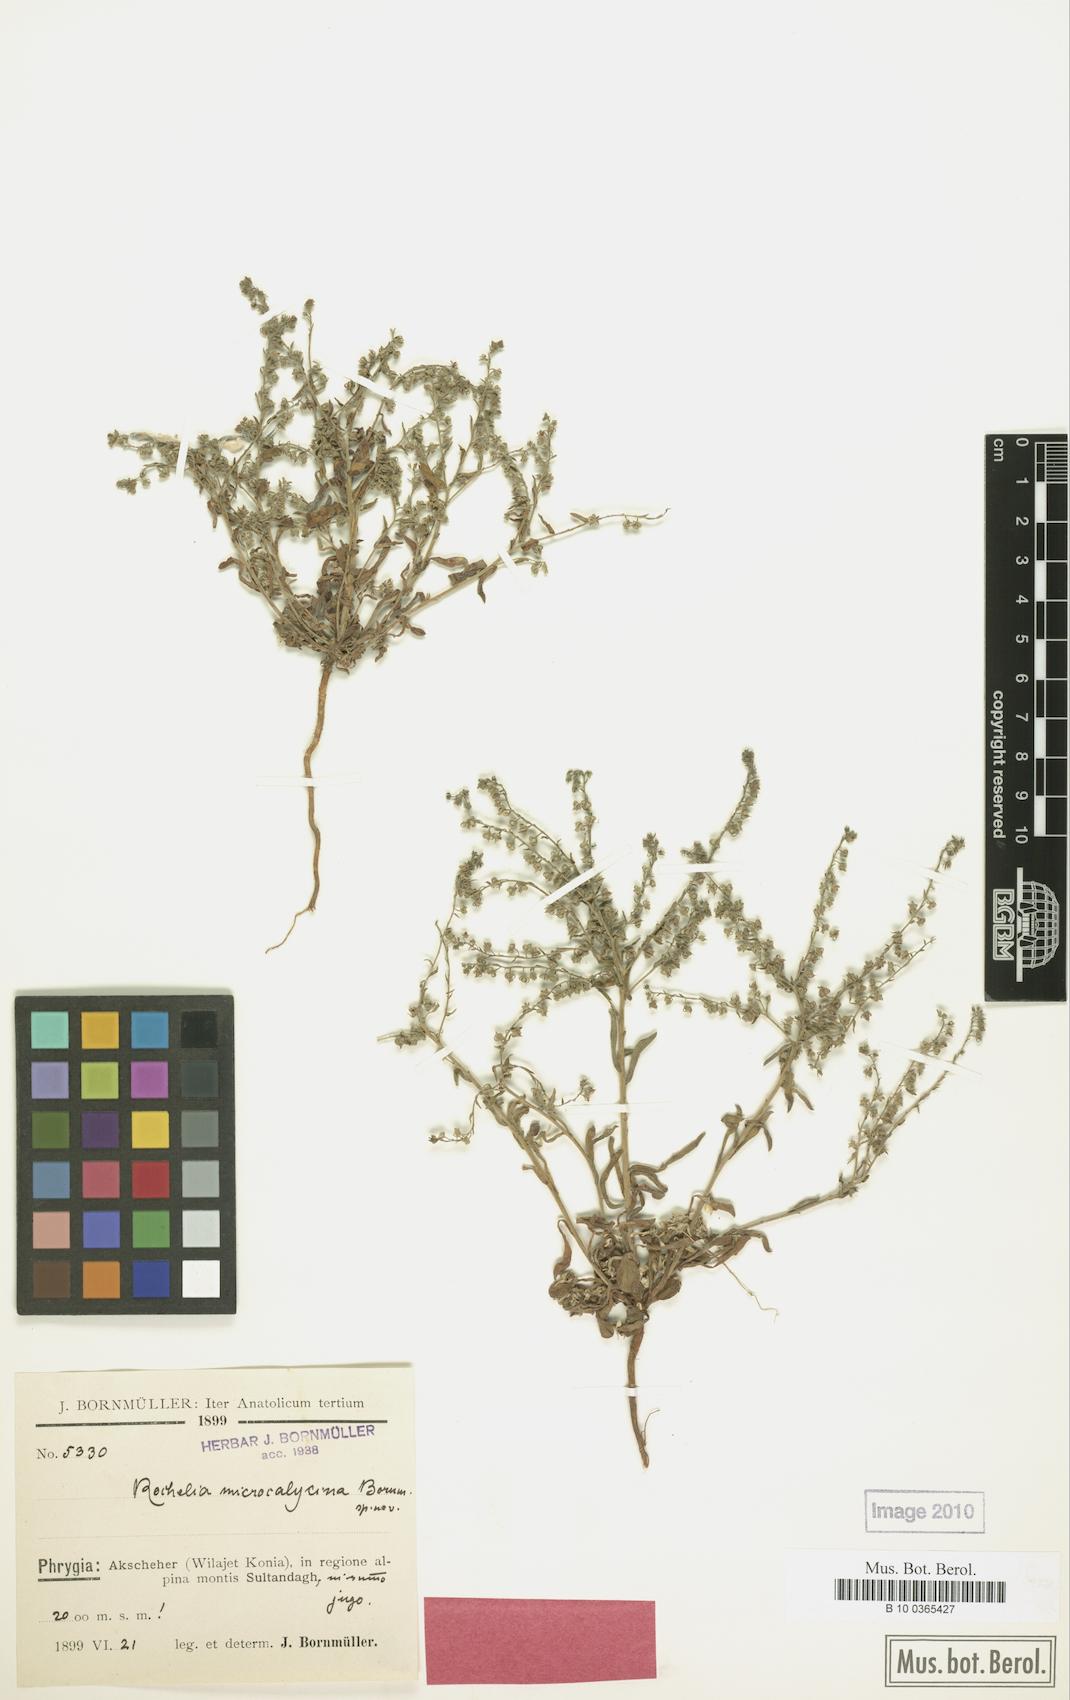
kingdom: Plantae
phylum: Tracheophyta
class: Magnoliopsida
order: Boraginales
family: Boraginaceae
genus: Rochelia
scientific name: Rochelia disperma
